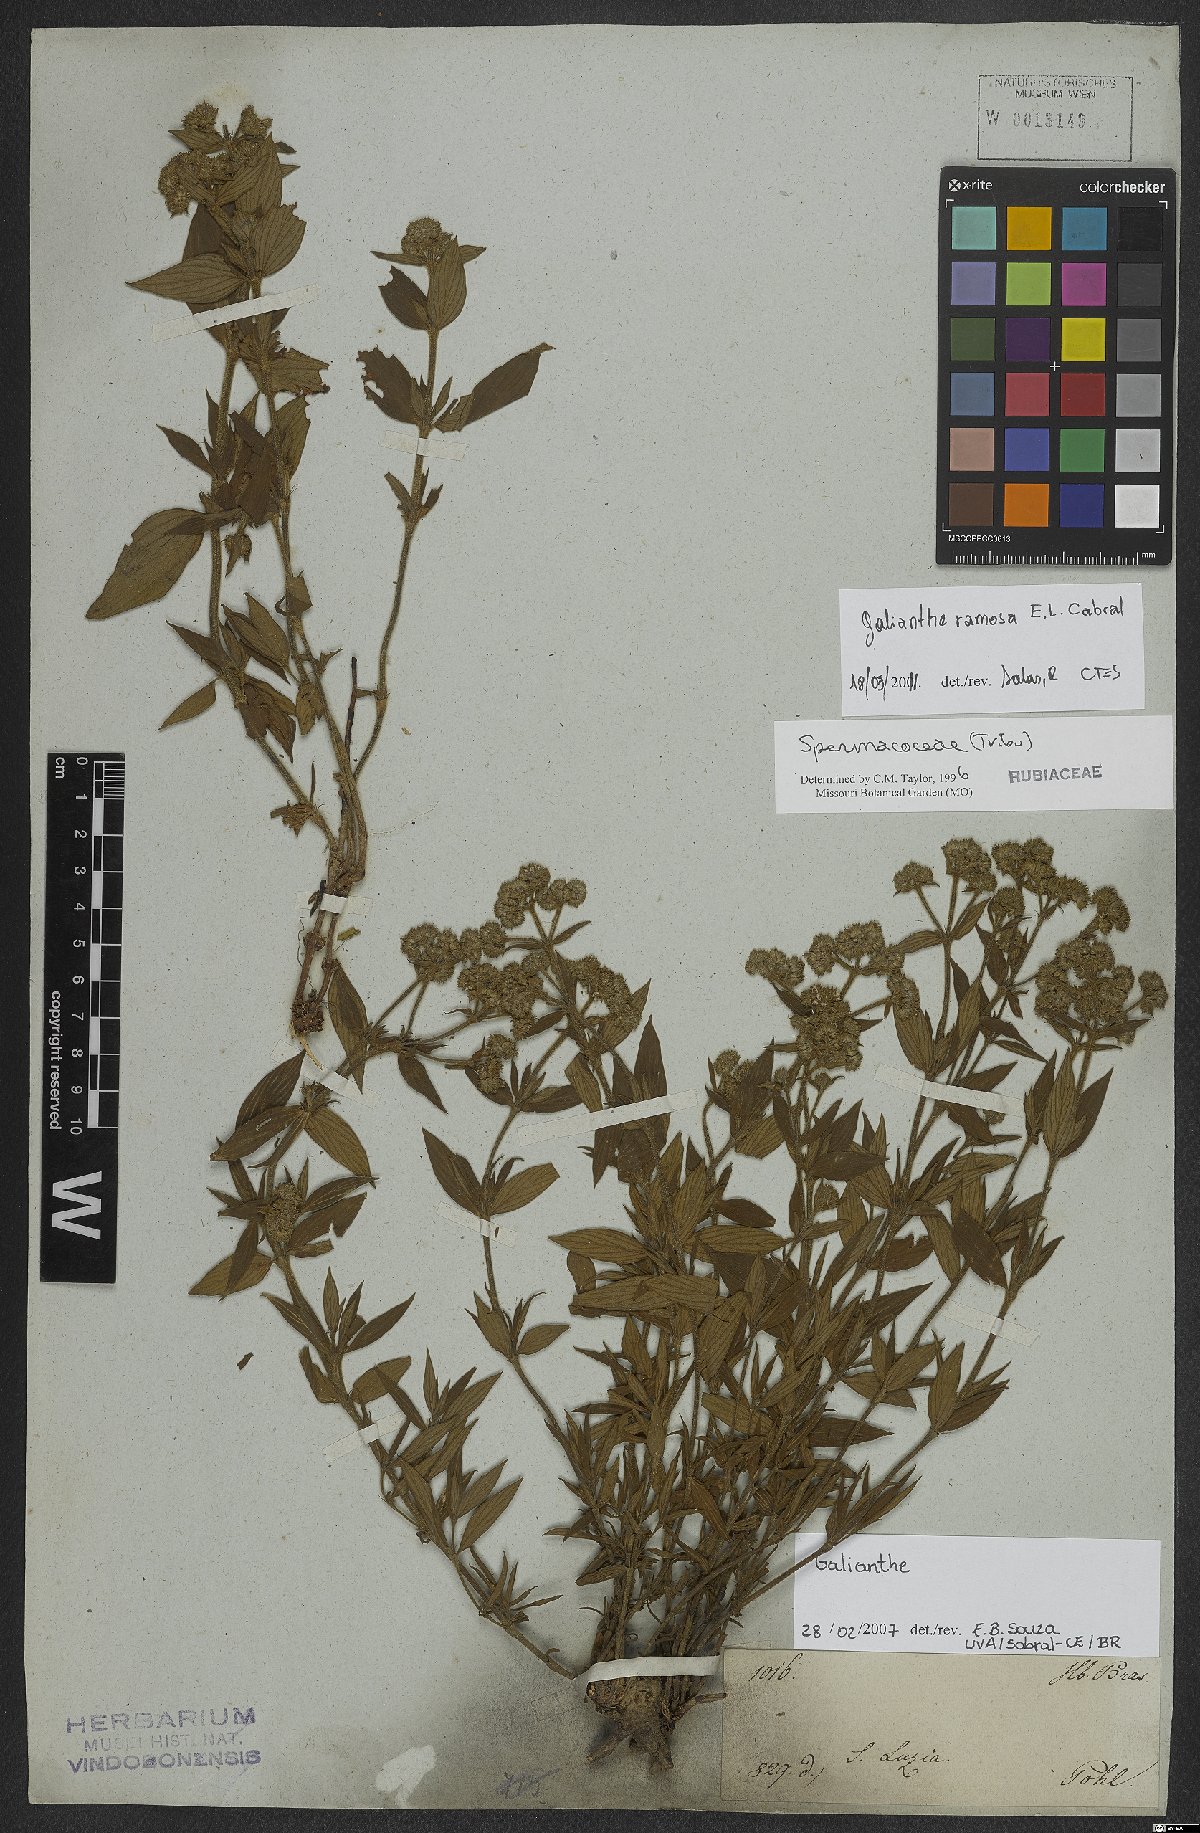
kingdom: Plantae
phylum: Tracheophyta
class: Magnoliopsida
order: Gentianales
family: Rubiaceae
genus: Galianthe
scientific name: Galianthe ramosa
